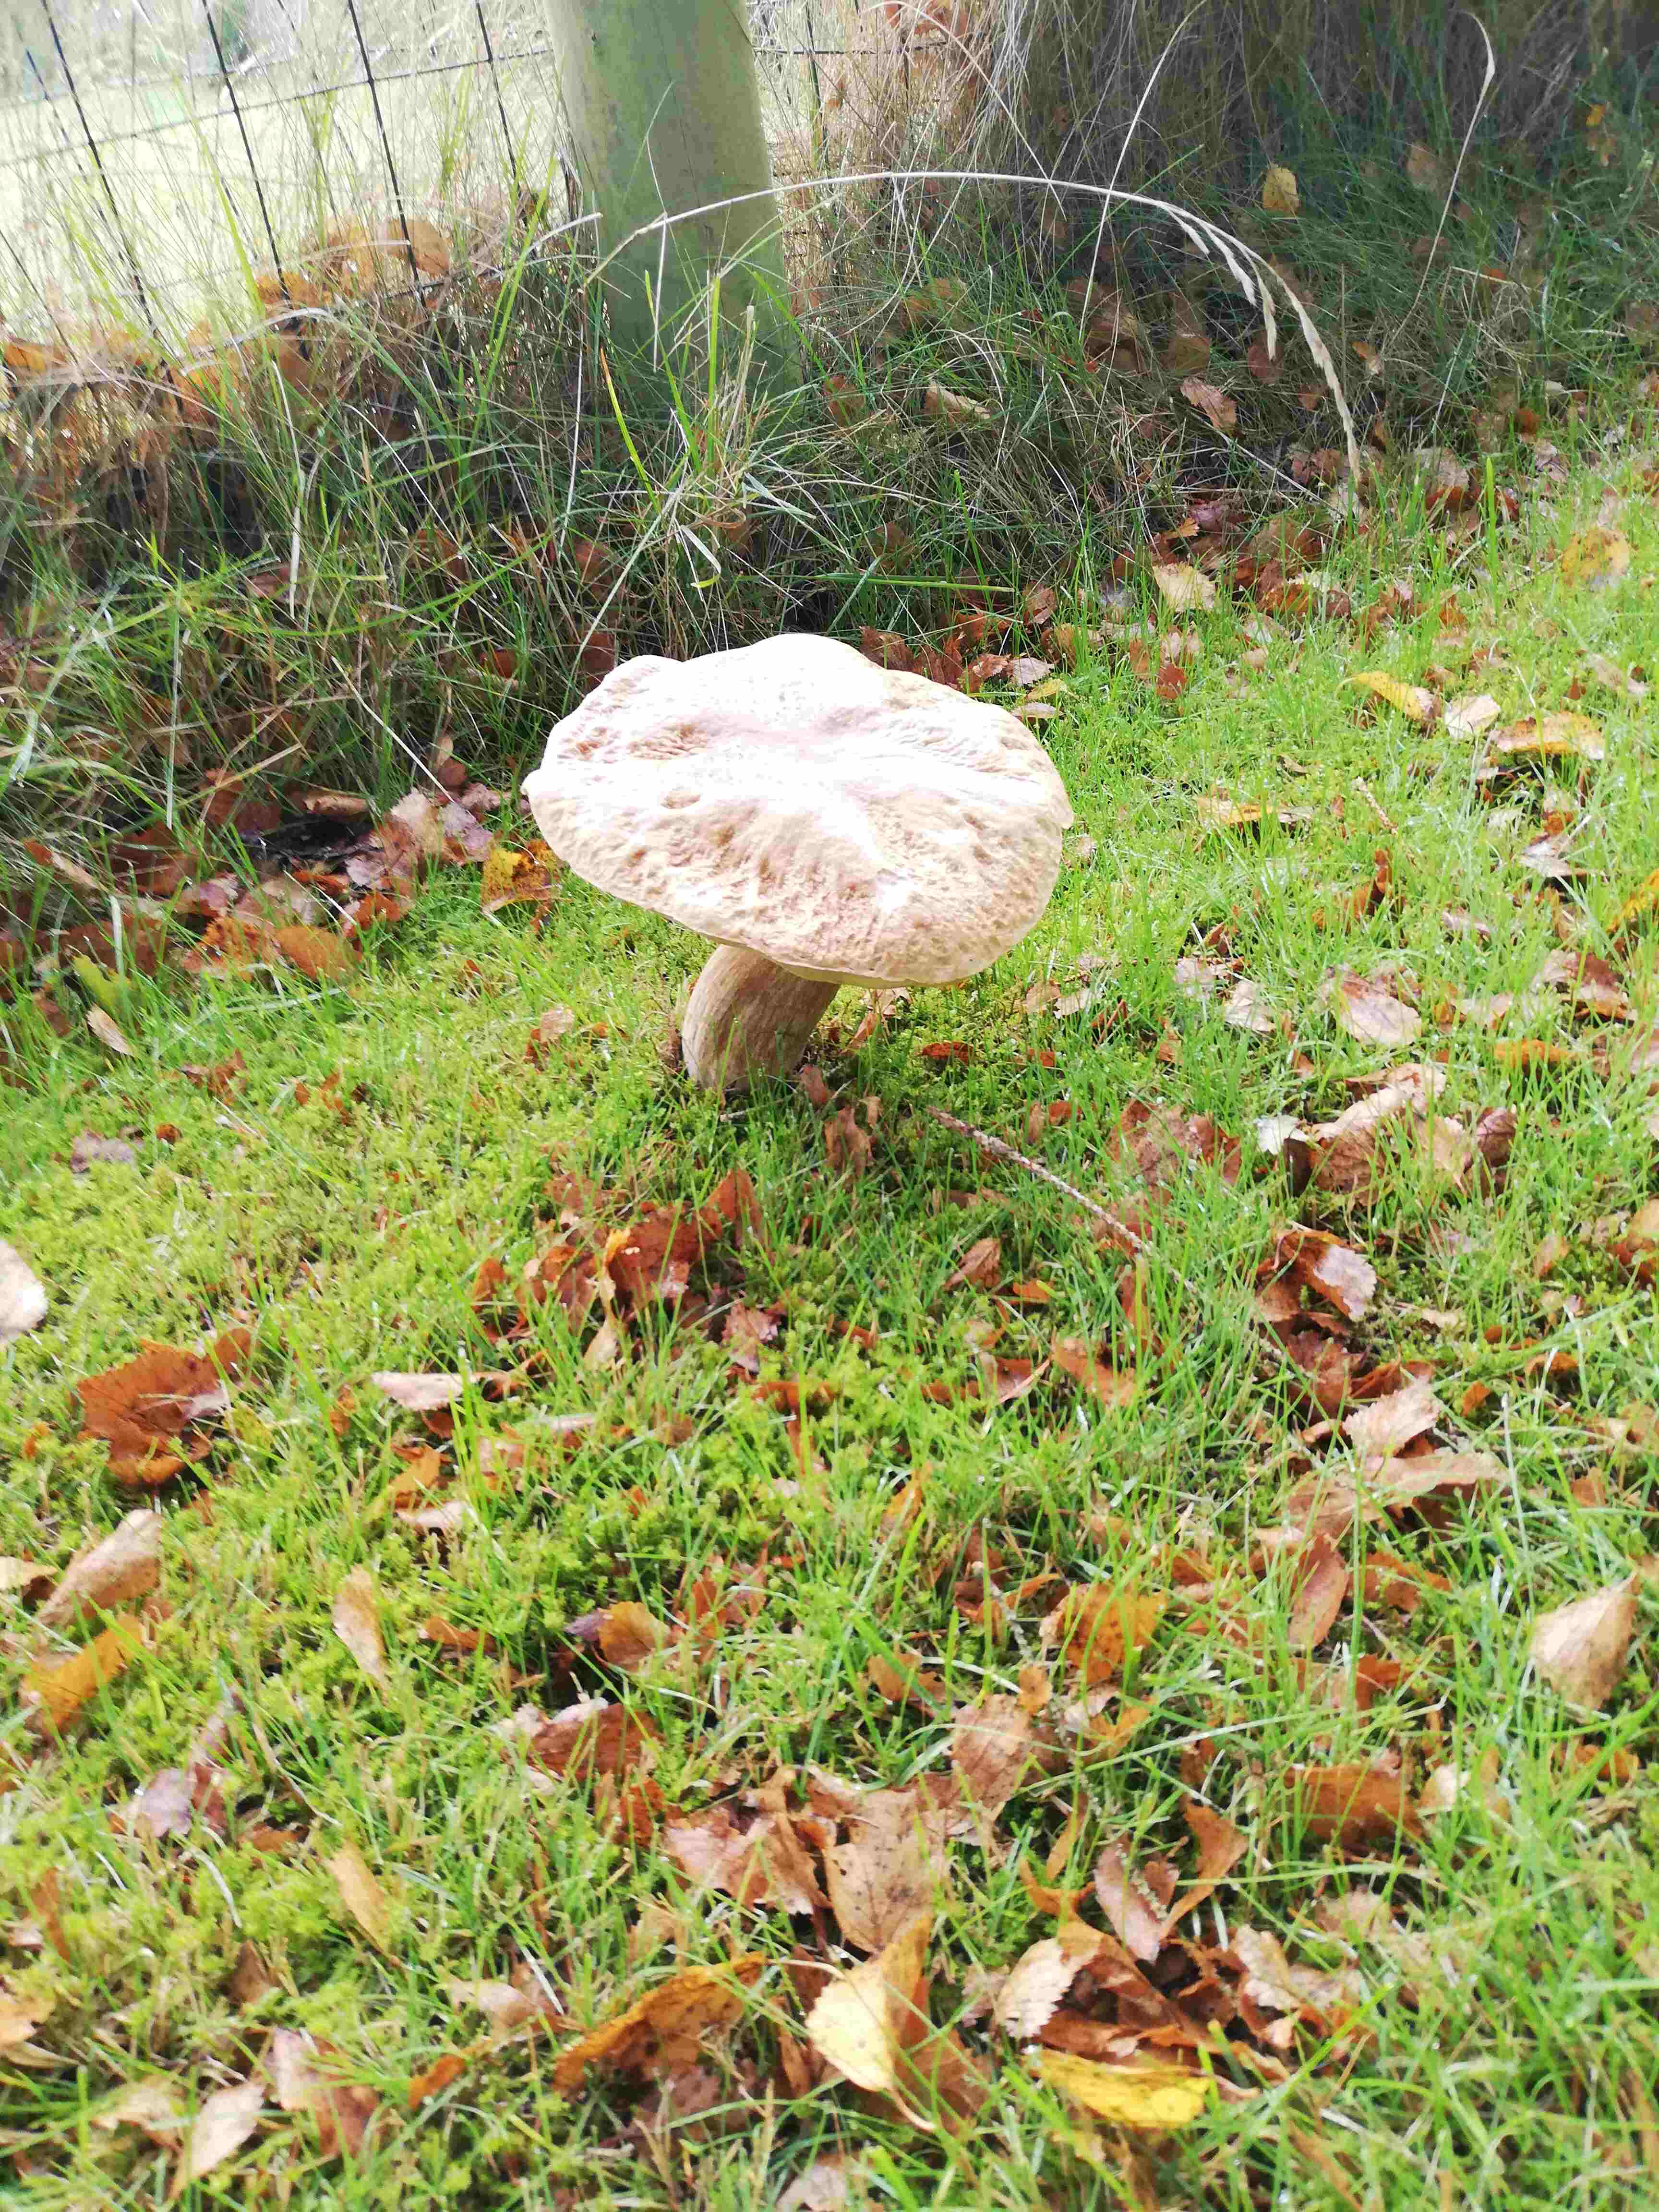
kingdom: Fungi
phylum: Basidiomycota
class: Agaricomycetes
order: Boletales
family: Boletaceae
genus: Boletus
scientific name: Boletus edulis
